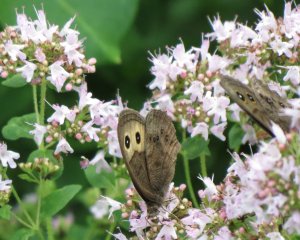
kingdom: Animalia
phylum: Arthropoda
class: Insecta
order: Lepidoptera
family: Nymphalidae
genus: Cercyonis
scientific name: Cercyonis pegala
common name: Common Wood-Nymph
